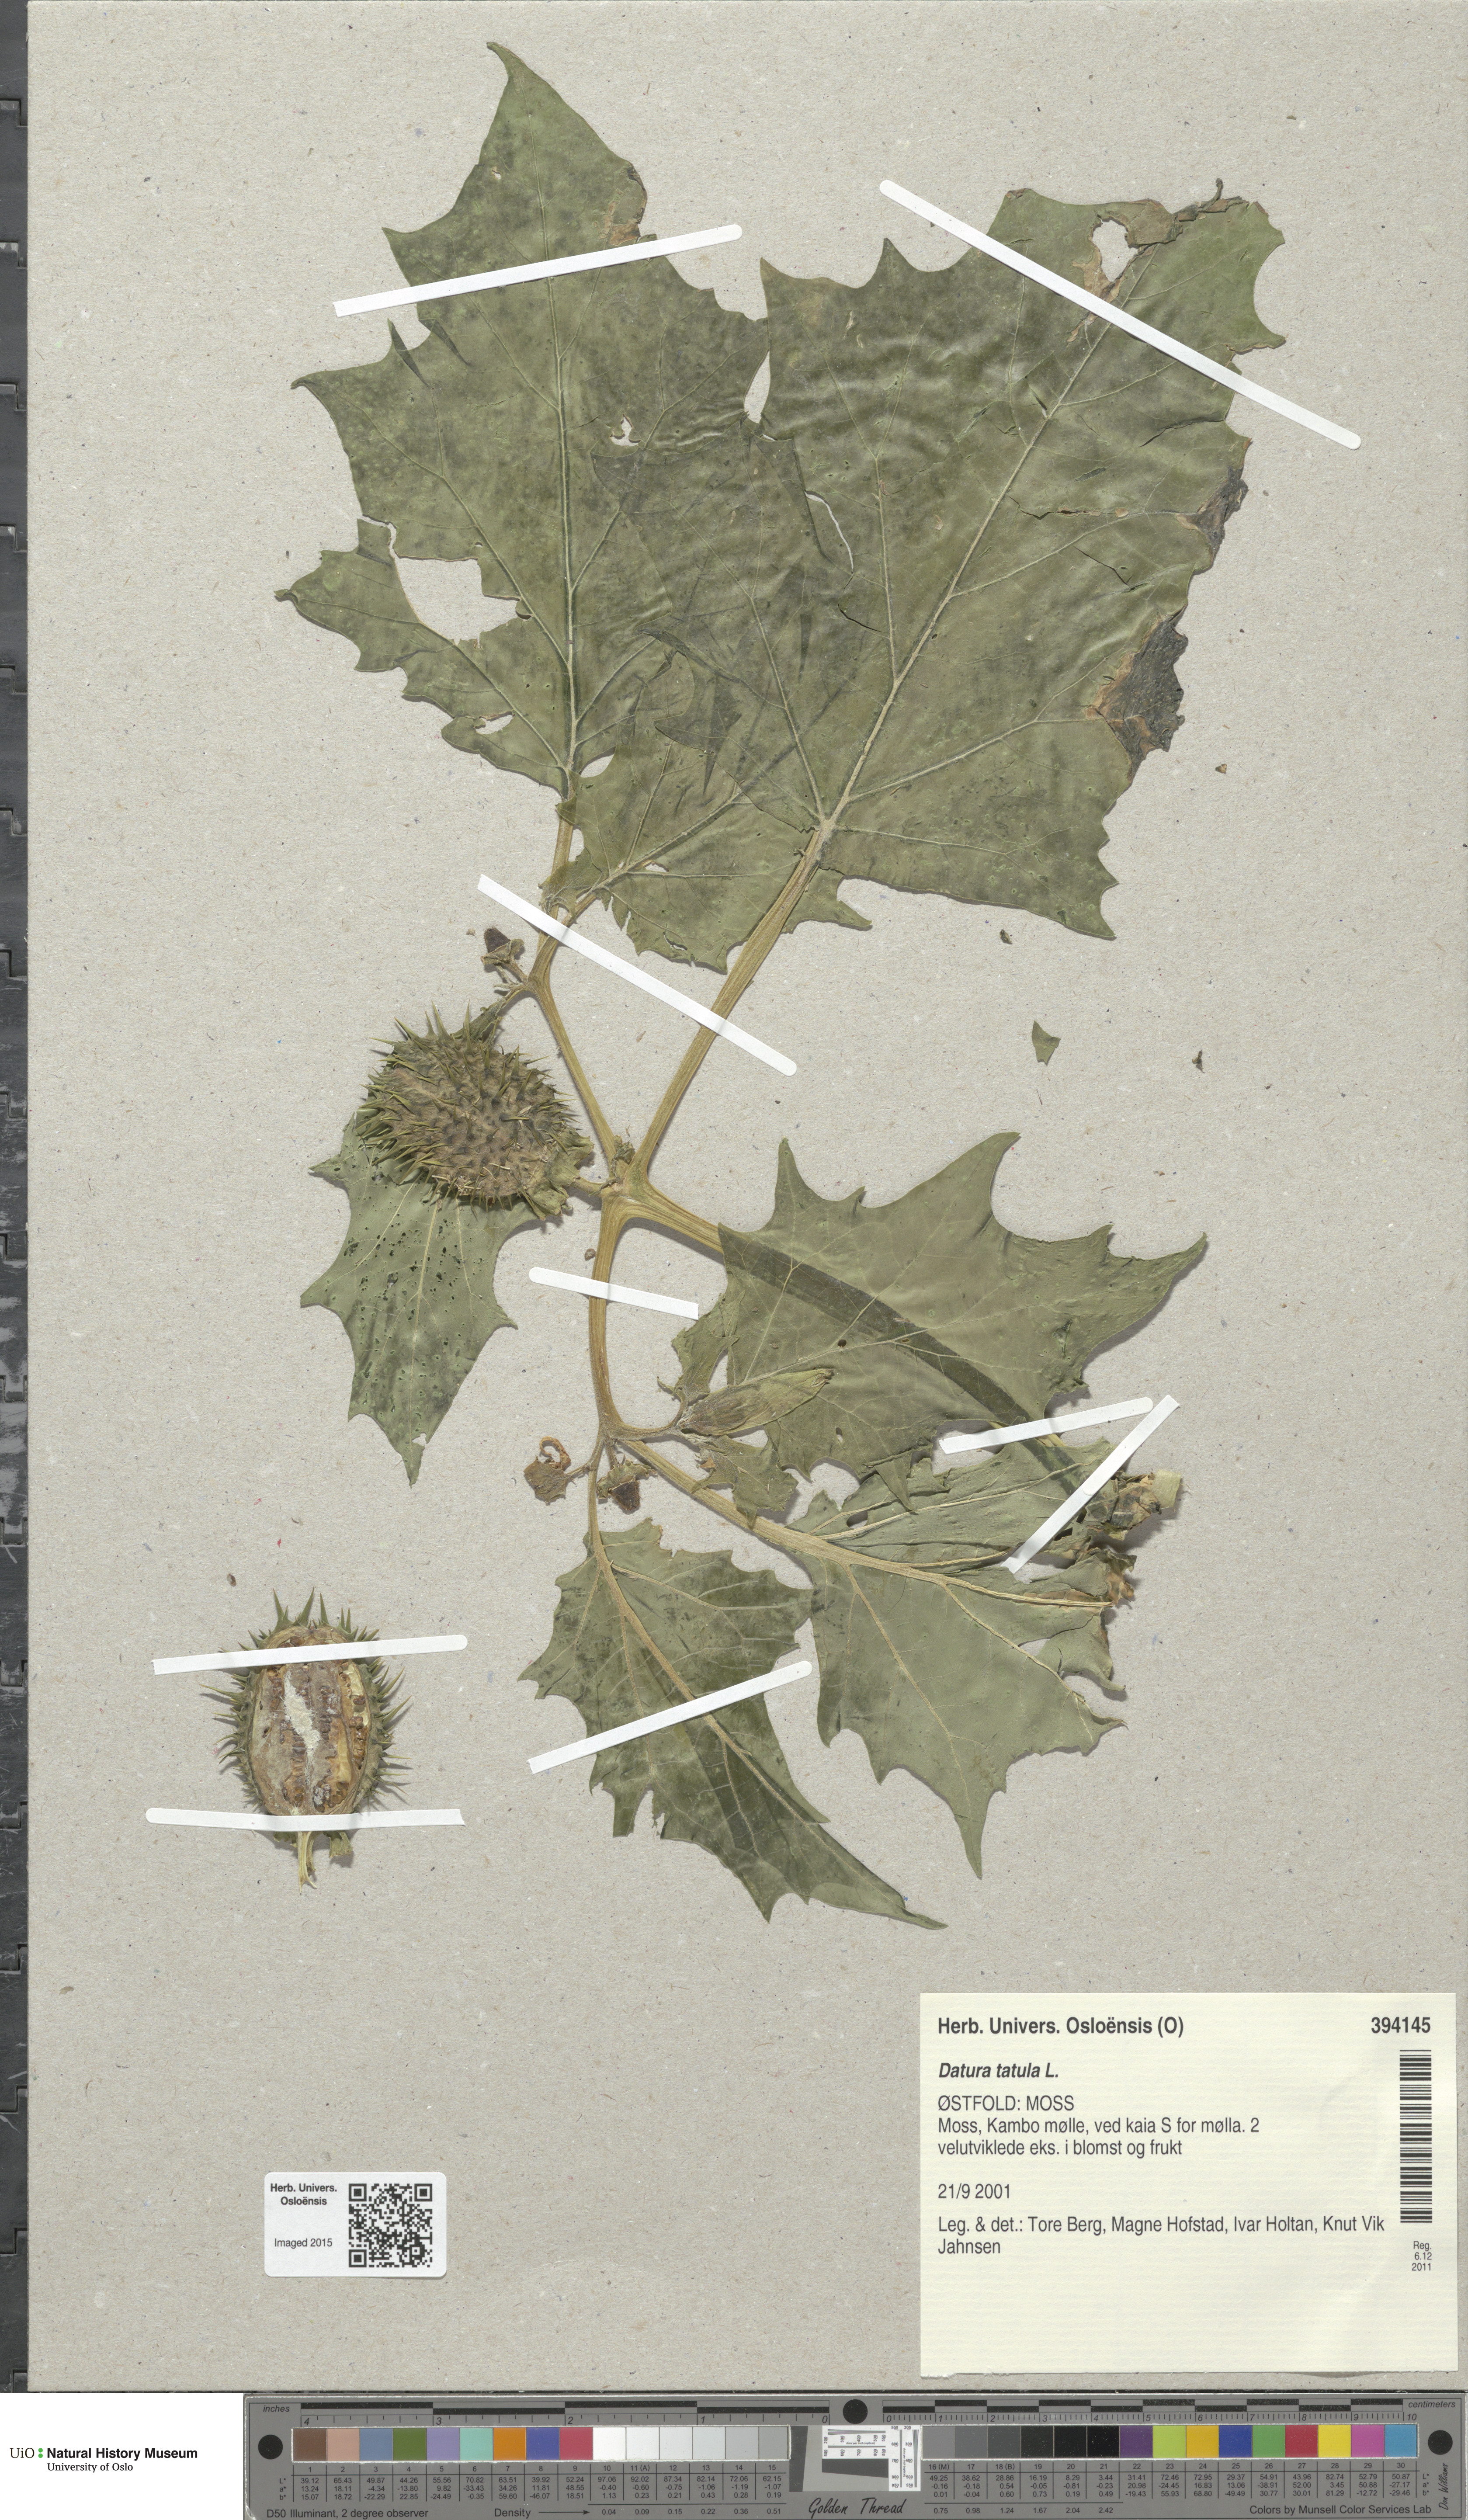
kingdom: Plantae
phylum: Tracheophyta
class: Magnoliopsida
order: Solanales
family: Solanaceae
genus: Datura
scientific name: Datura stramonium
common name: Thorn-apple
